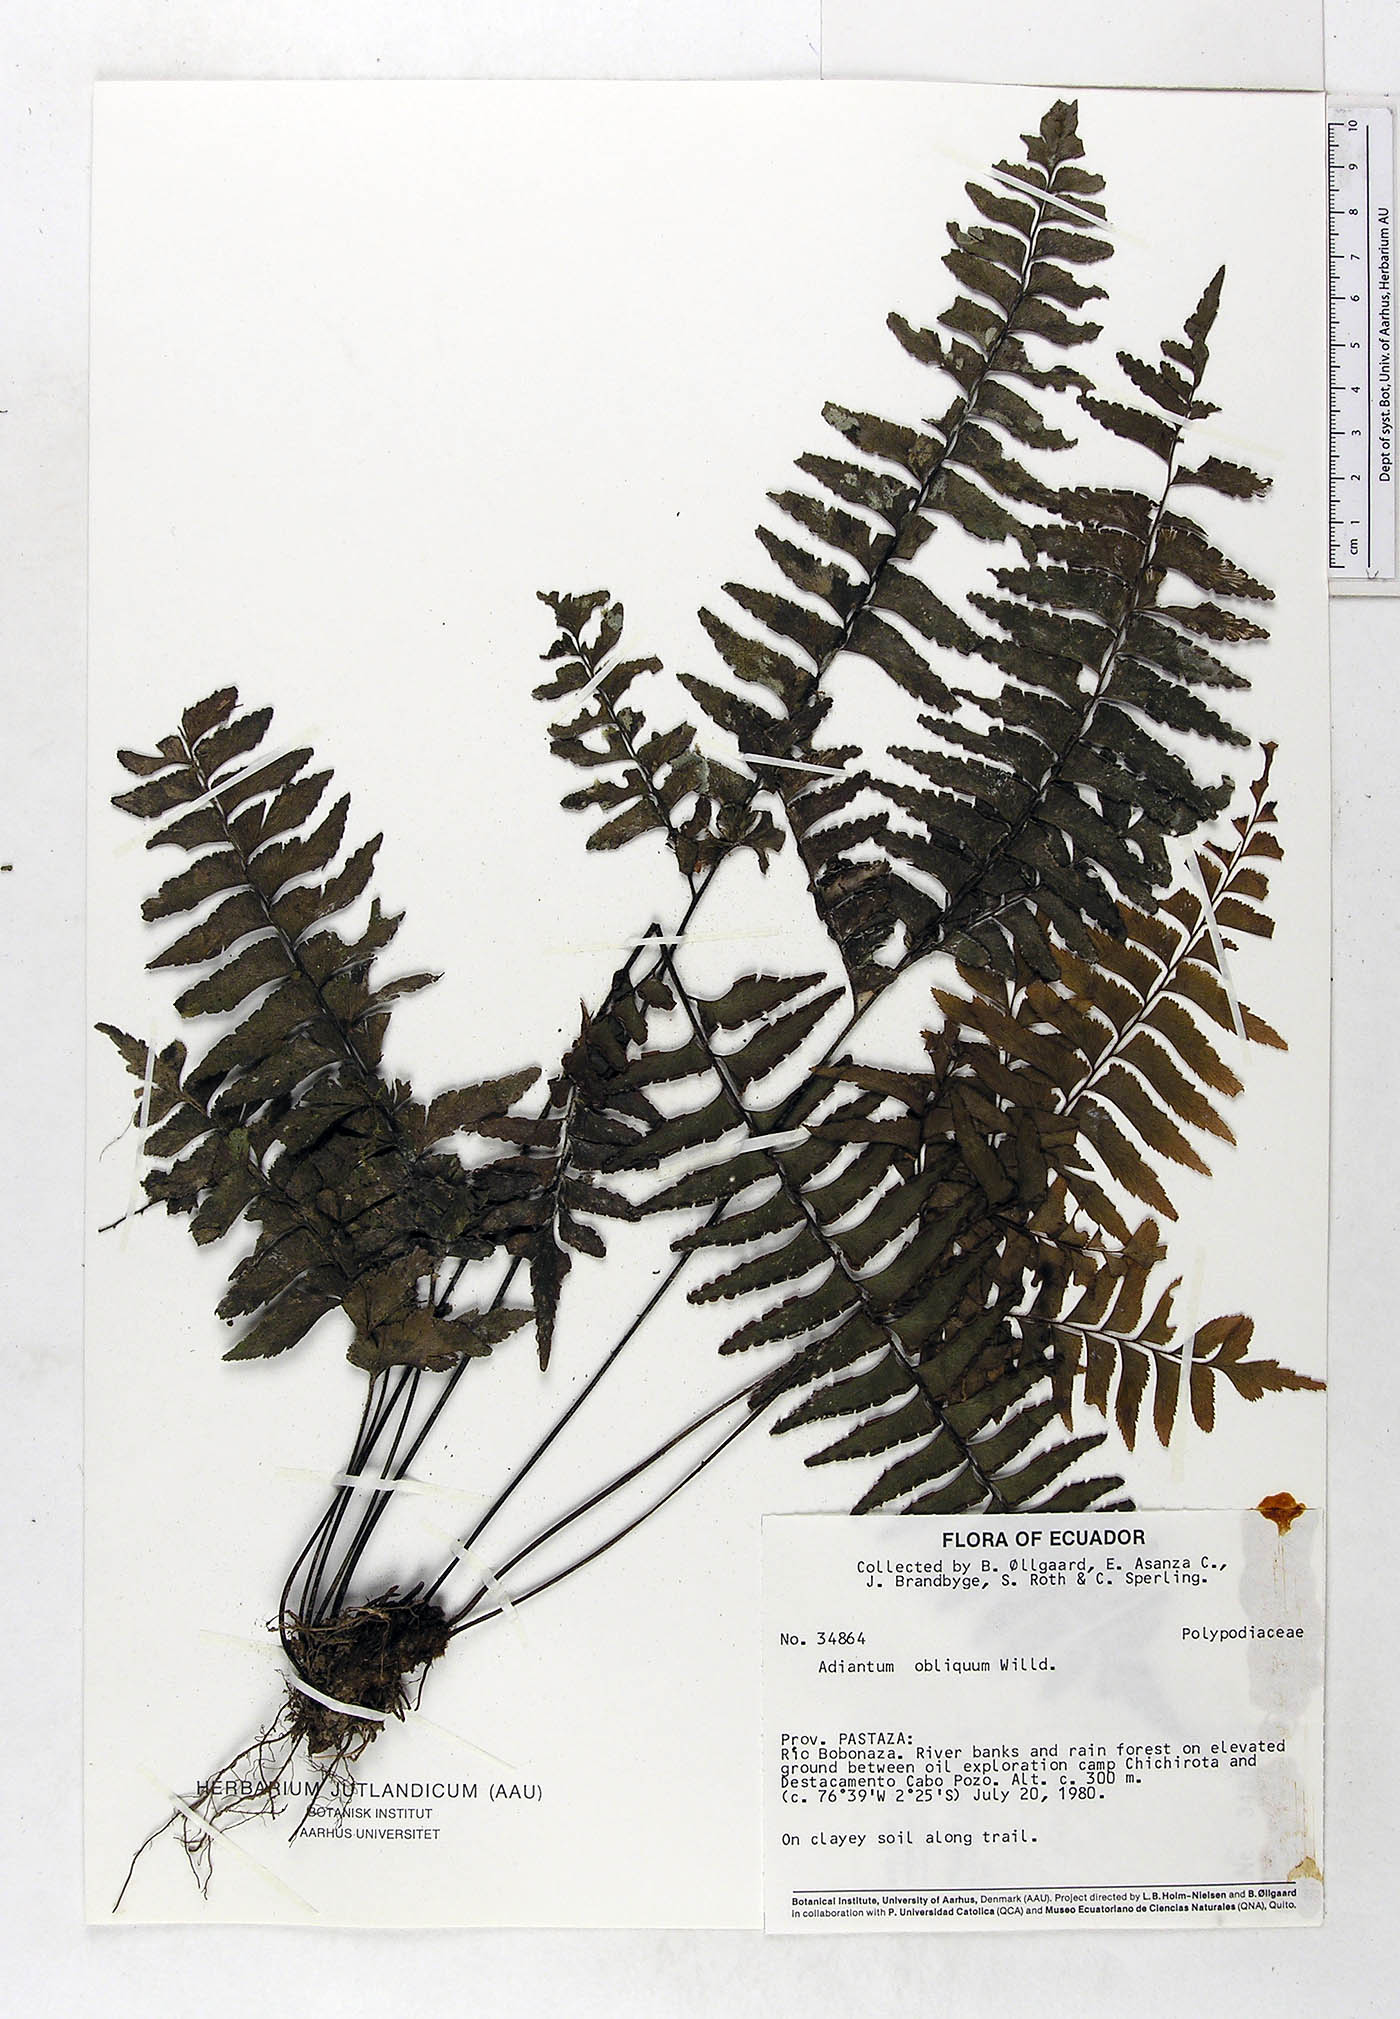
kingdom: Plantae
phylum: Tracheophyta
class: Polypodiopsida
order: Polypodiales
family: Pteridaceae
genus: Adiantum
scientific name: Adiantum obliquum
